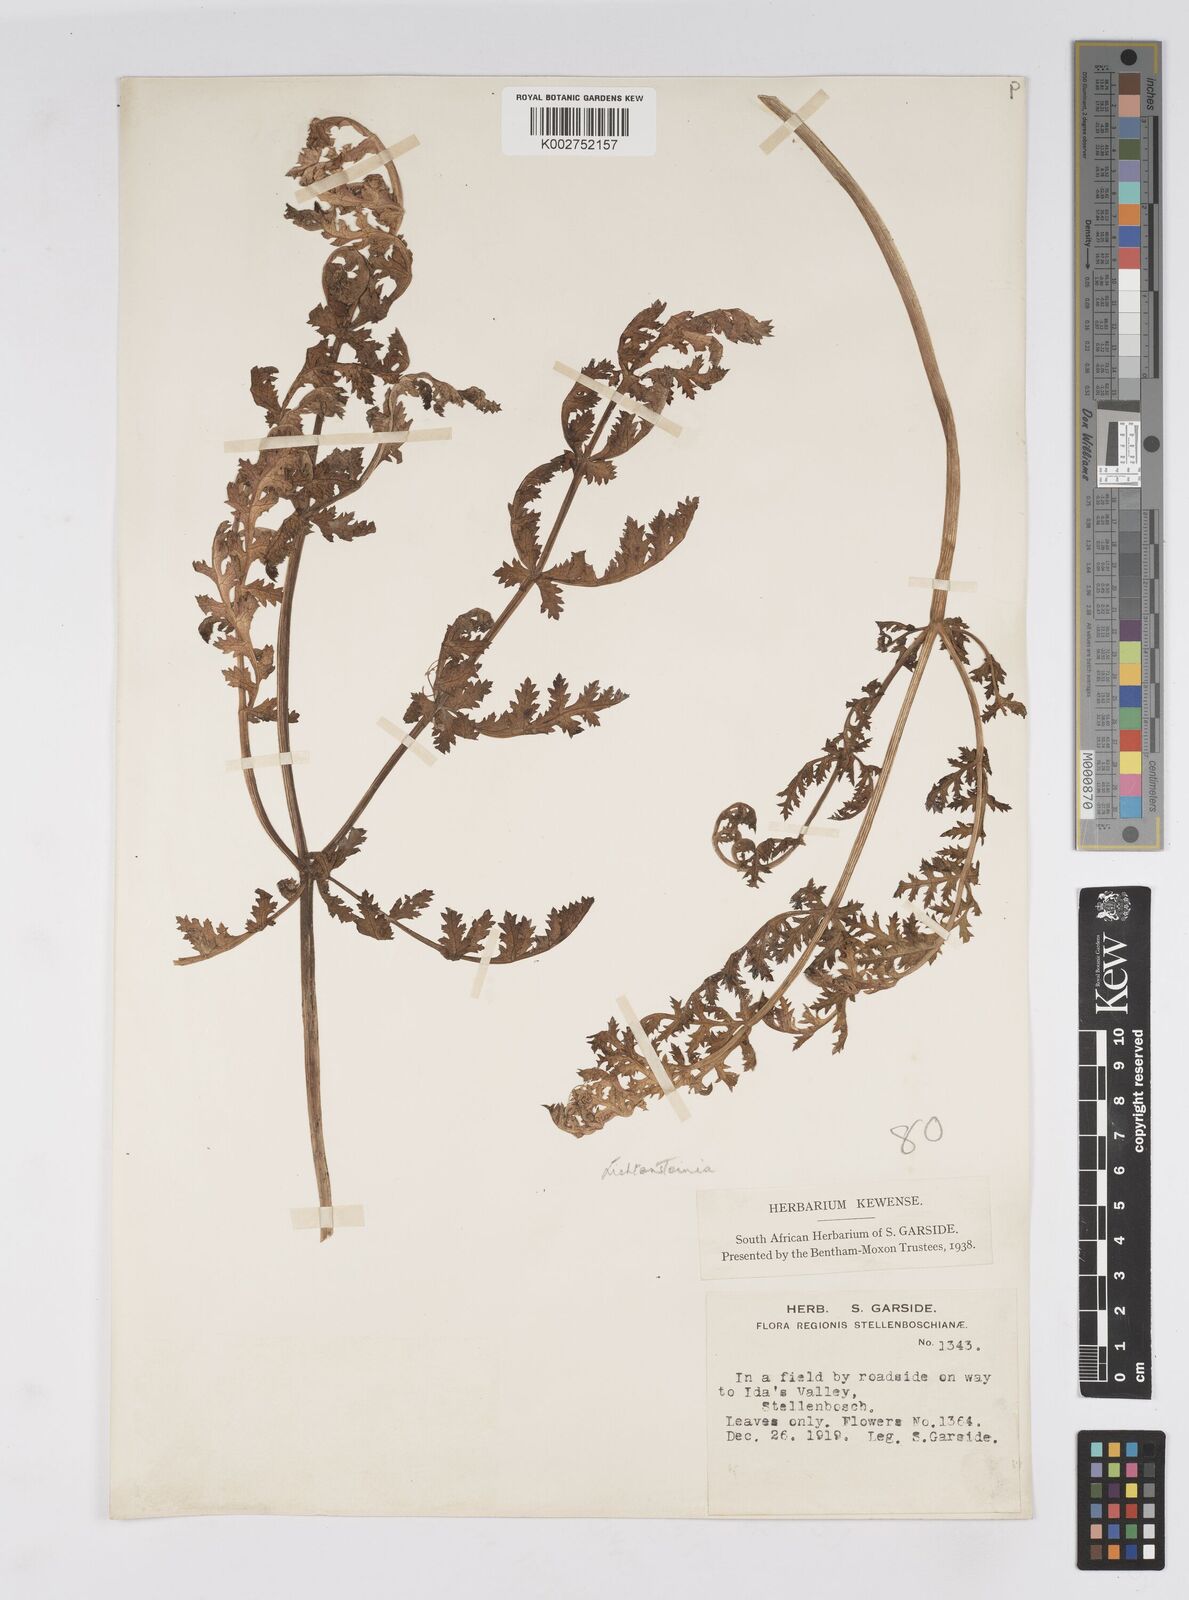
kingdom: Plantae
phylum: Tracheophyta
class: Magnoliopsida
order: Apiales
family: Apiaceae
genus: Lichtensteinia
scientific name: Lichtensteinia
